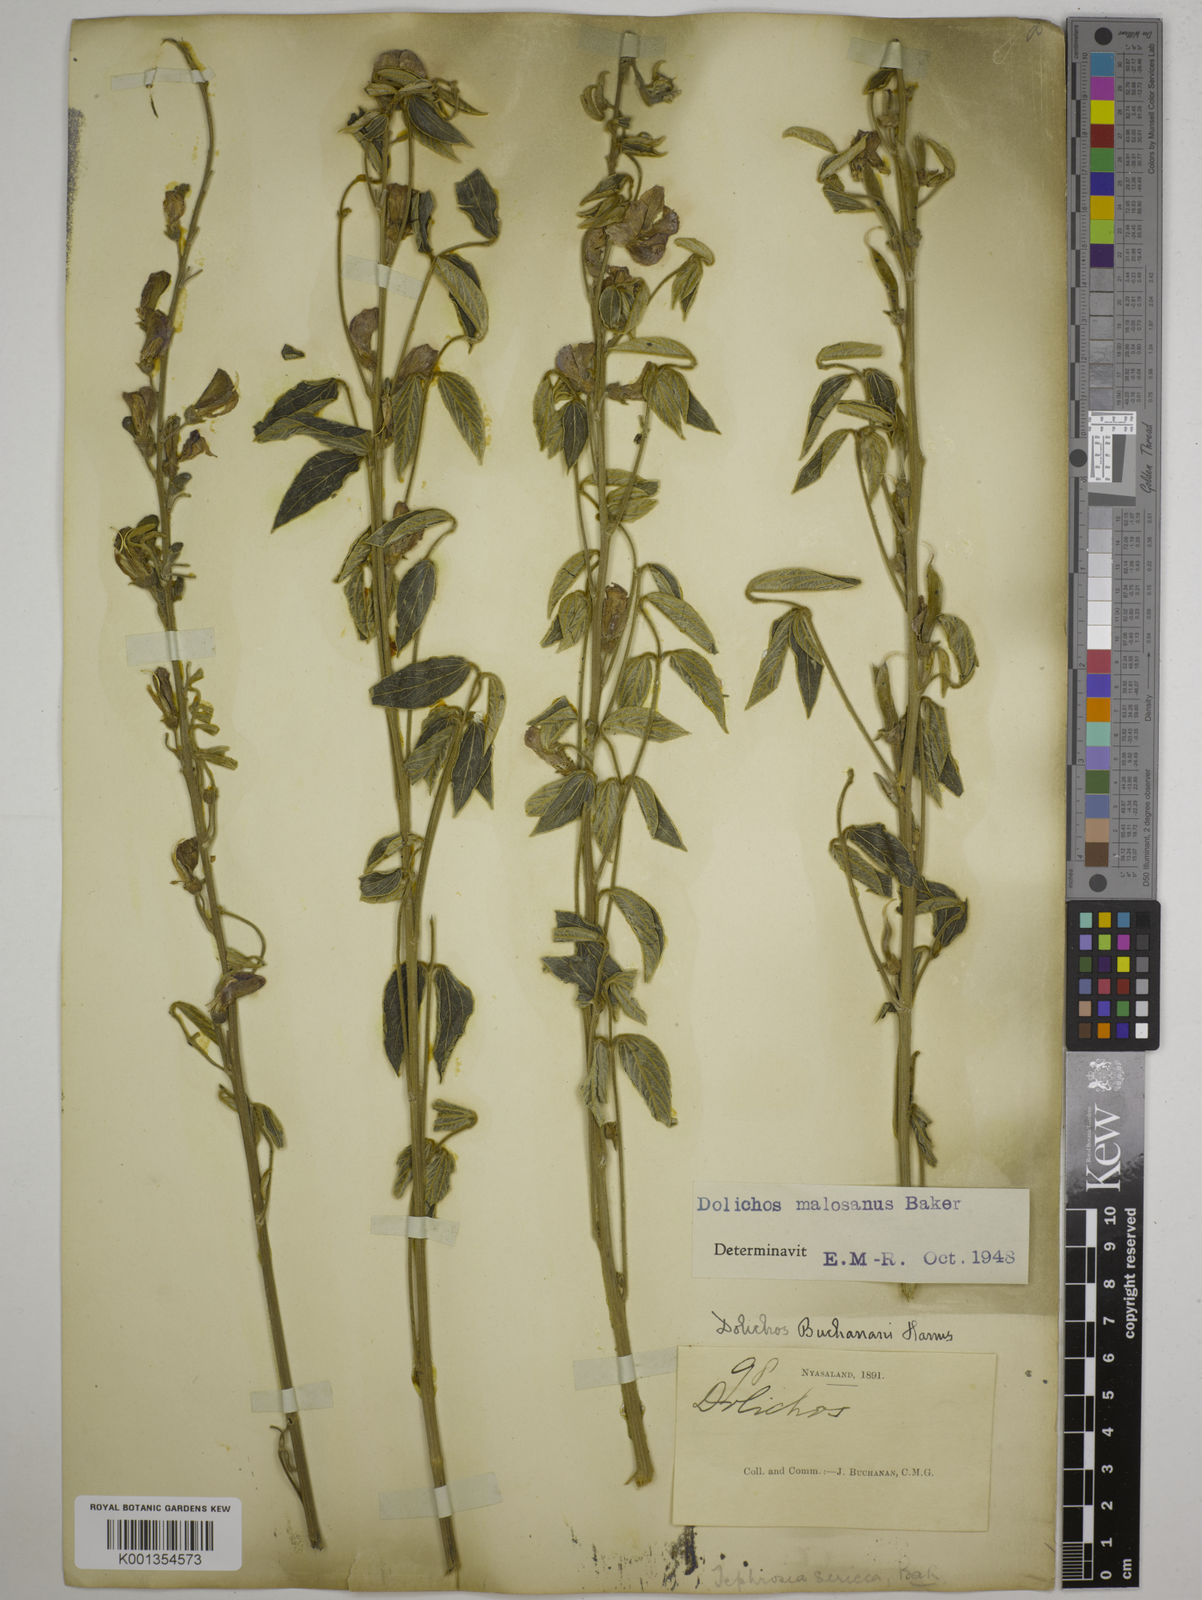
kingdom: Plantae
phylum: Tracheophyta
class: Magnoliopsida
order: Fabales
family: Fabaceae
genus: Dolichos
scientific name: Dolichos kilimandscharicus
